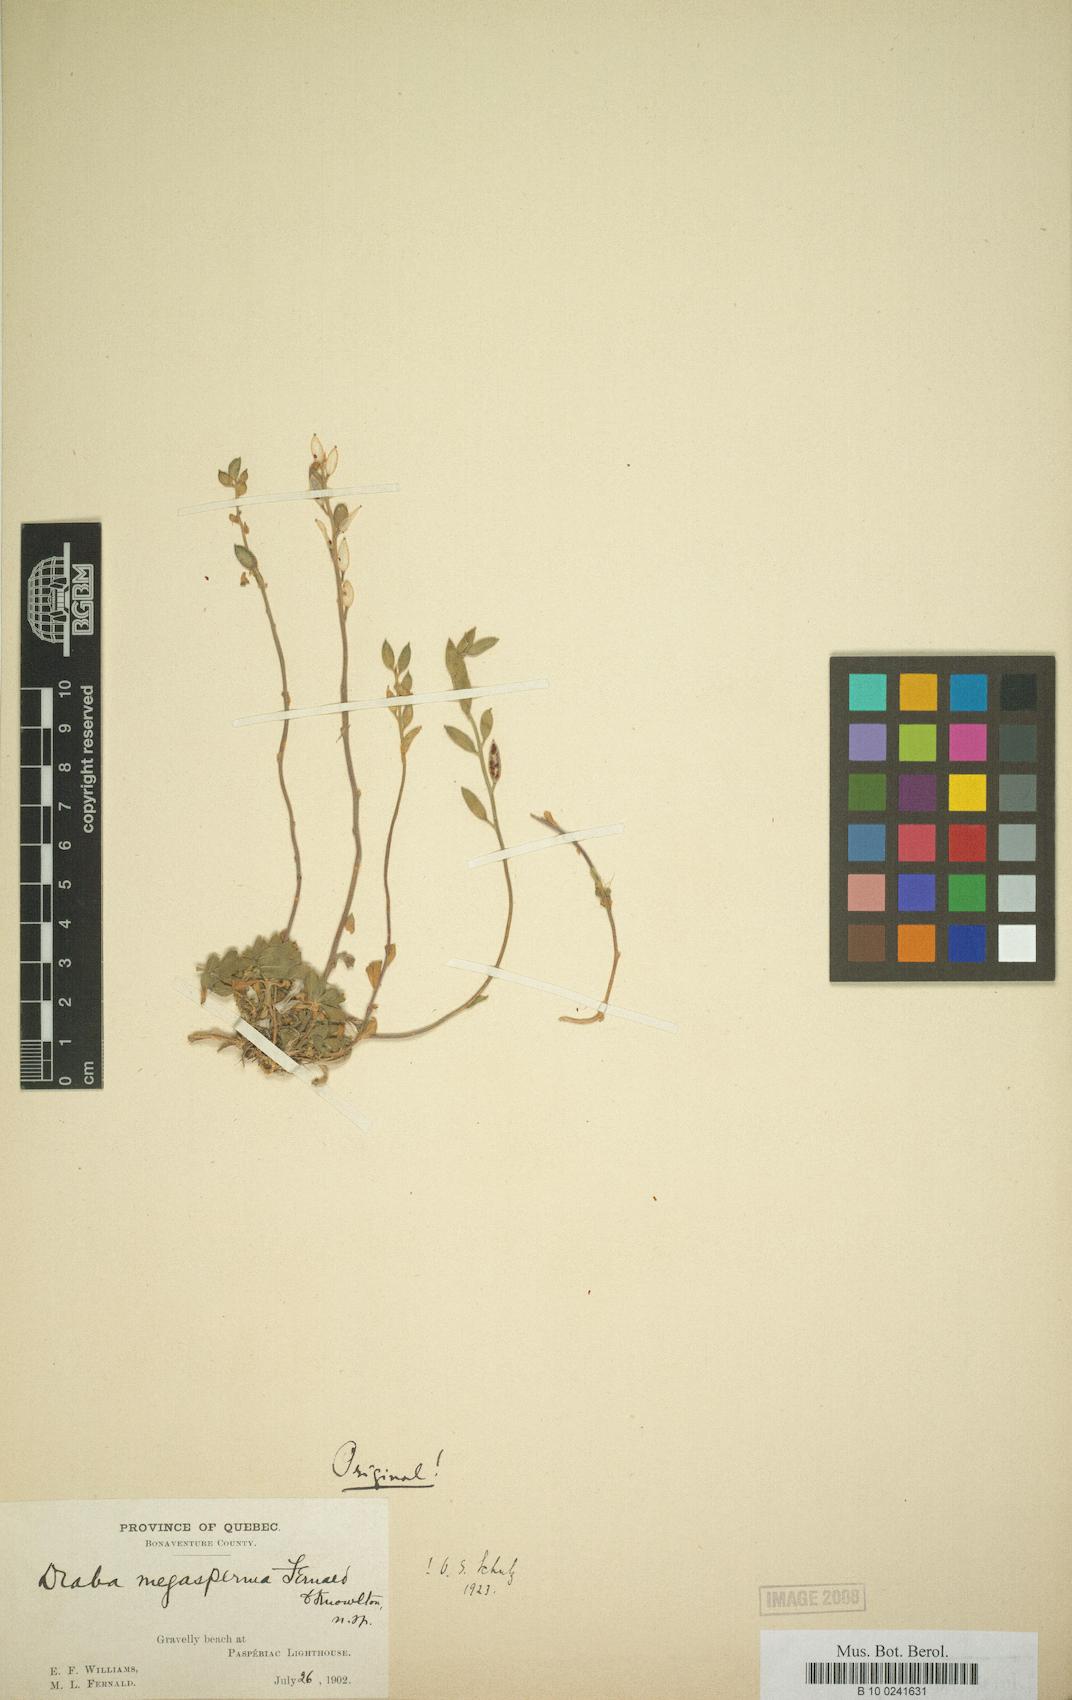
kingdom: Plantae
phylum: Tracheophyta
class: Magnoliopsida
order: Brassicales
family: Brassicaceae
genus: Draba
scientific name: Draba glabella
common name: Glaucous draba
